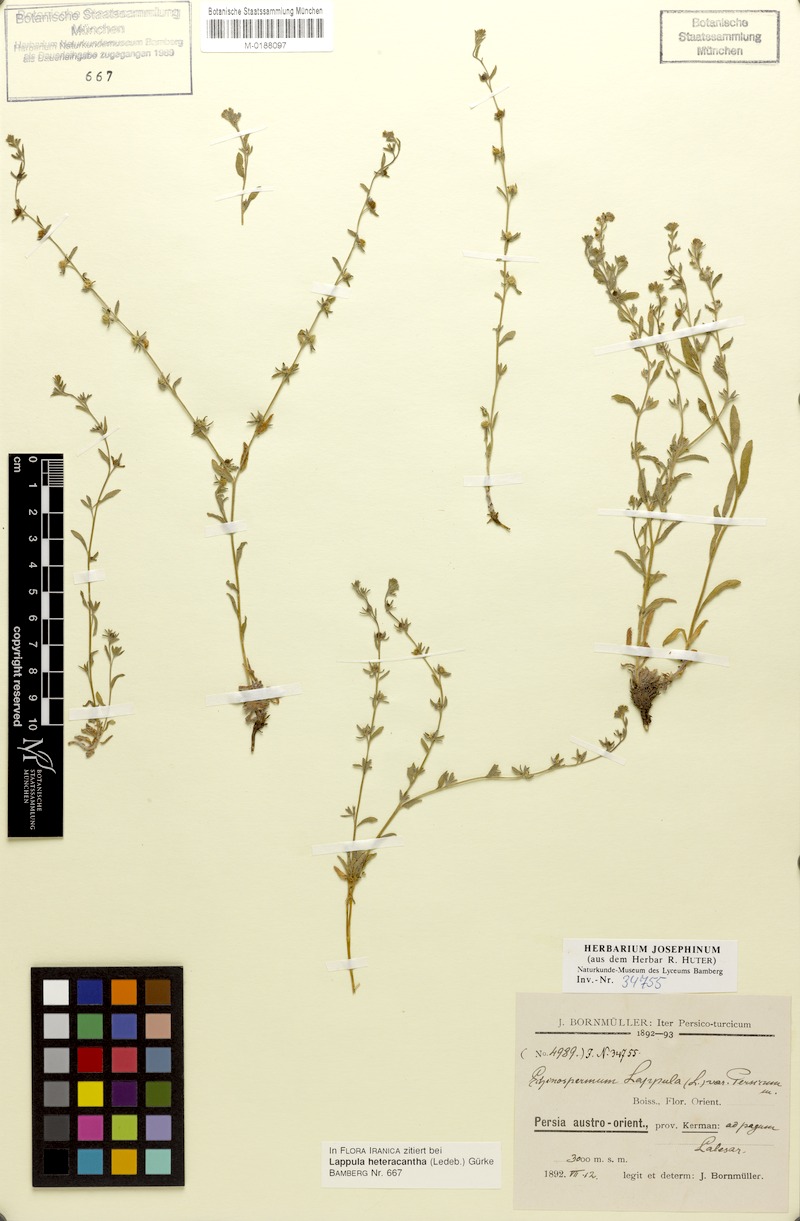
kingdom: Plantae
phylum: Tracheophyta
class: Magnoliopsida
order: Boraginales
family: Boraginaceae
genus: Lappula
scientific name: Lappula marginata
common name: Margined stickseed
